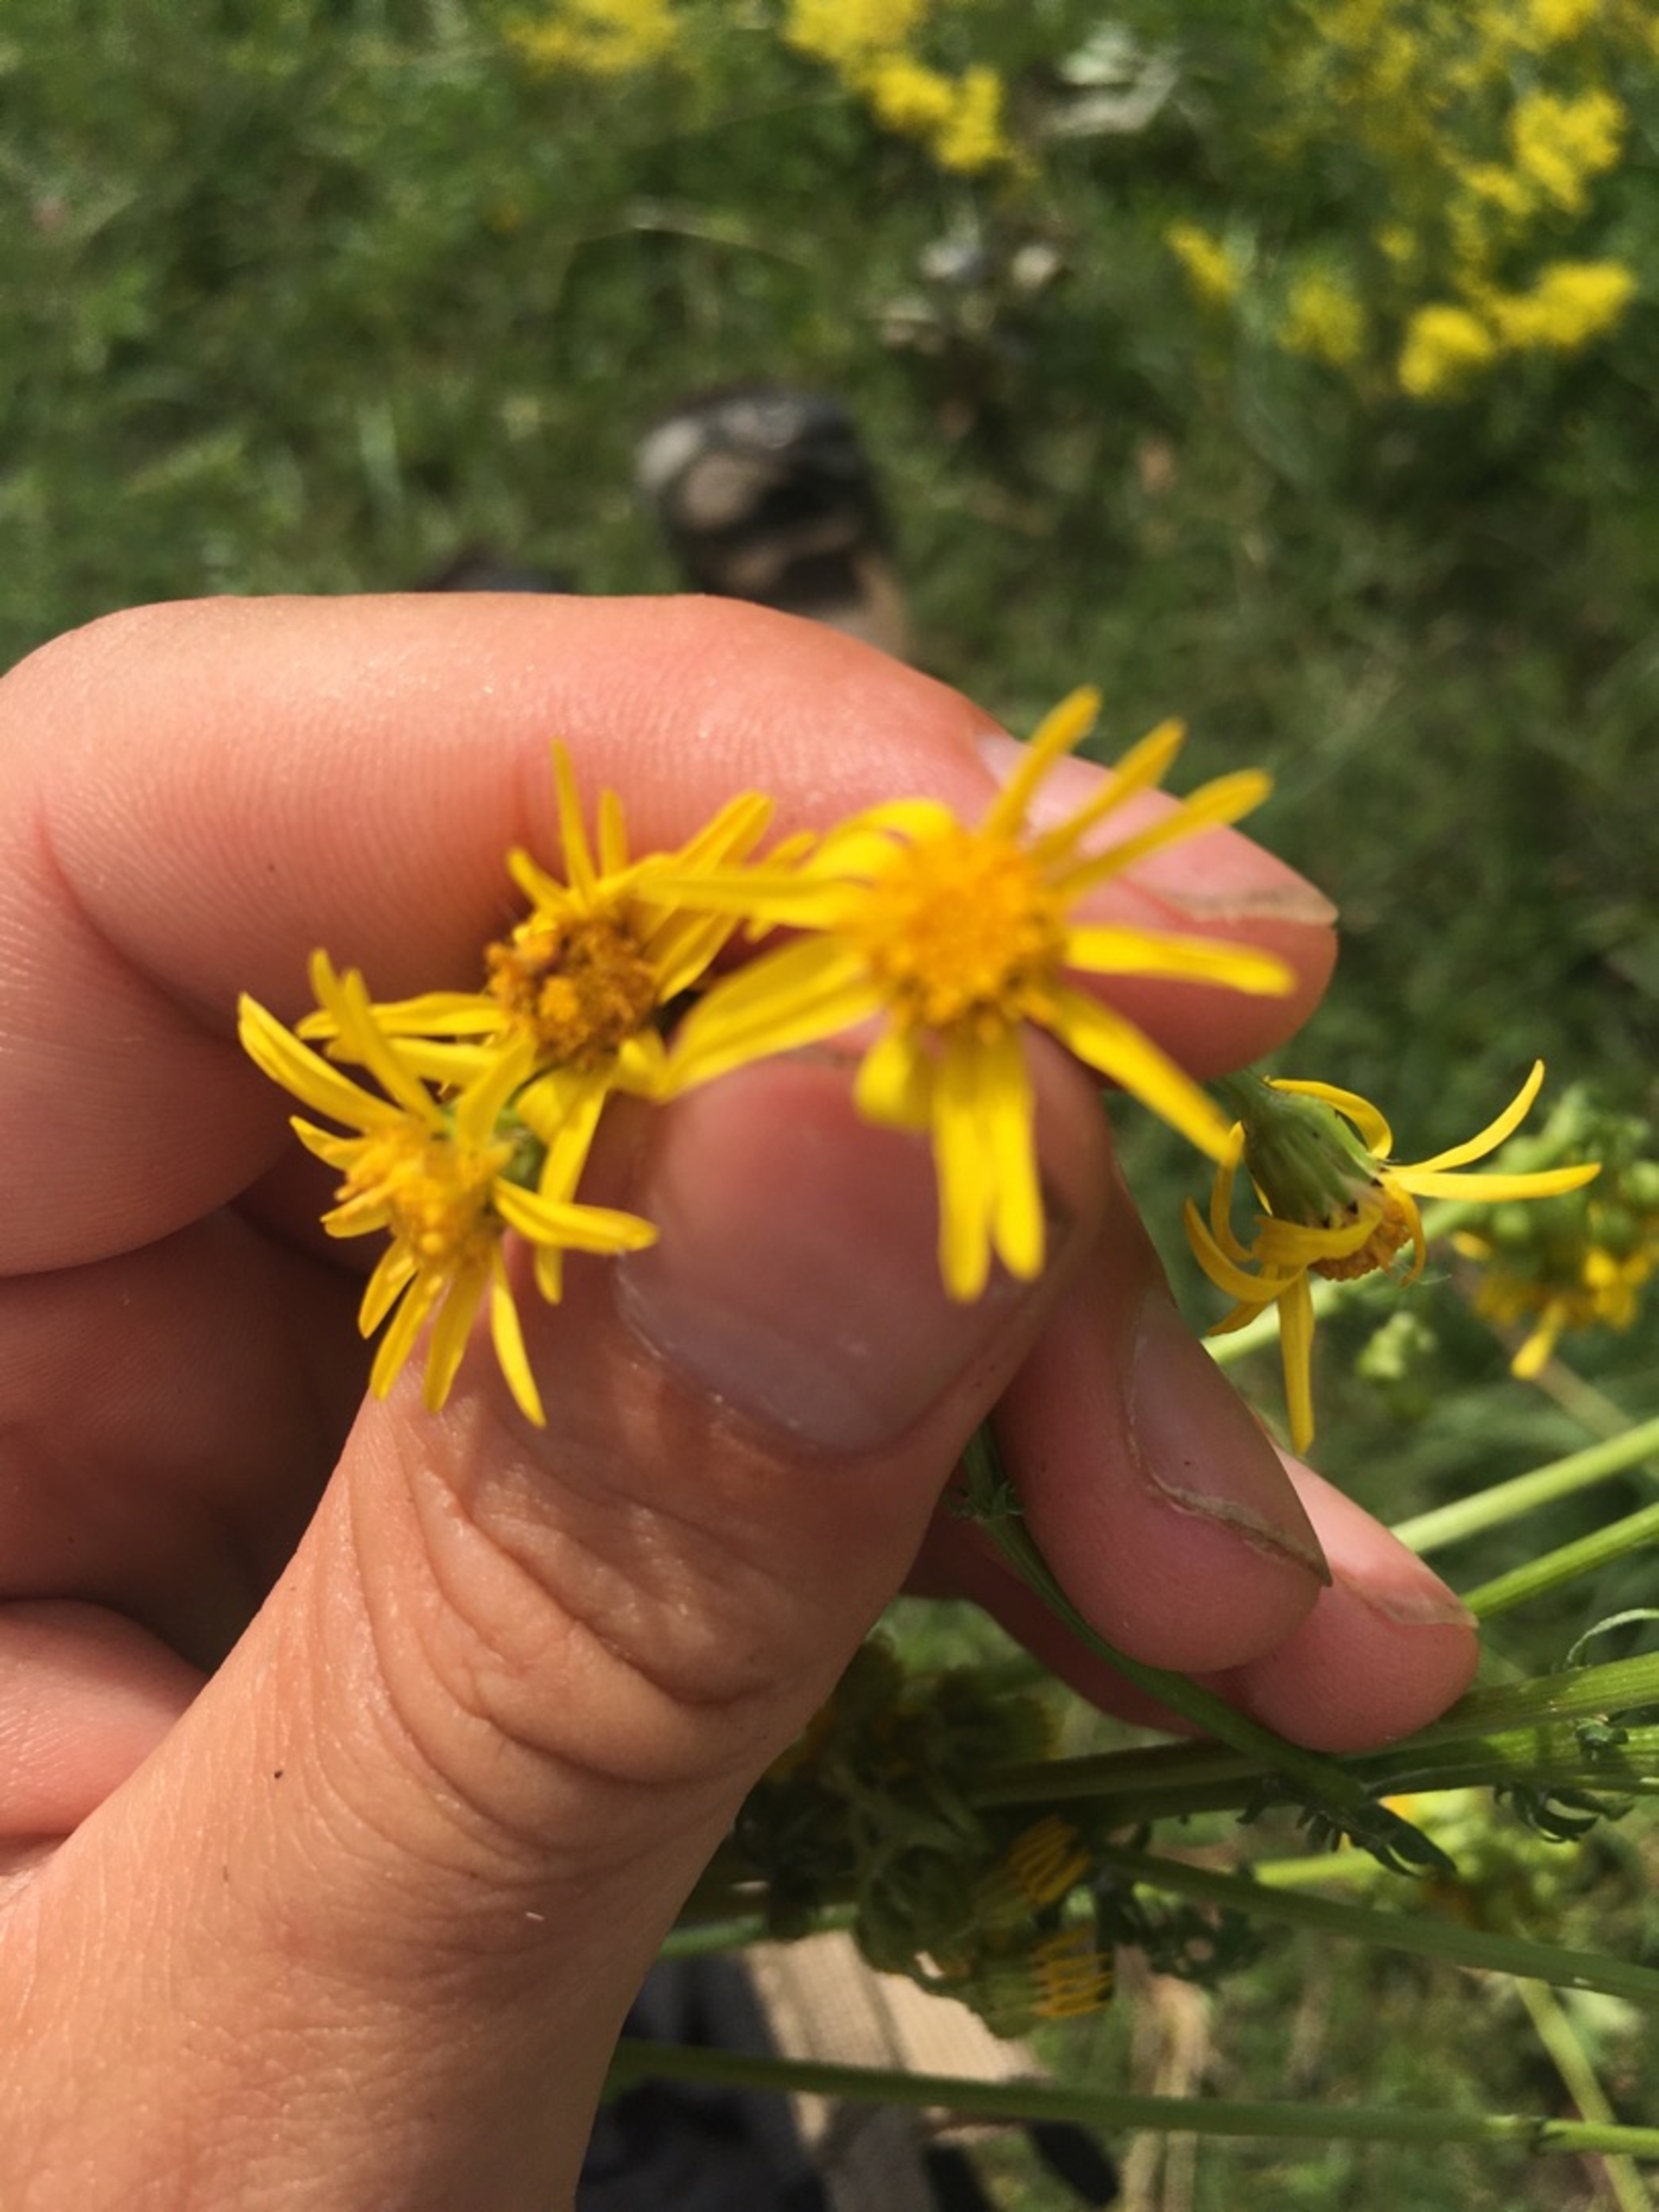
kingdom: Plantae
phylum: Tracheophyta
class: Magnoliopsida
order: Asterales
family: Asteraceae
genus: Jacobaea
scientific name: Jacobaea vulgaris
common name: Eng-brandbæger
